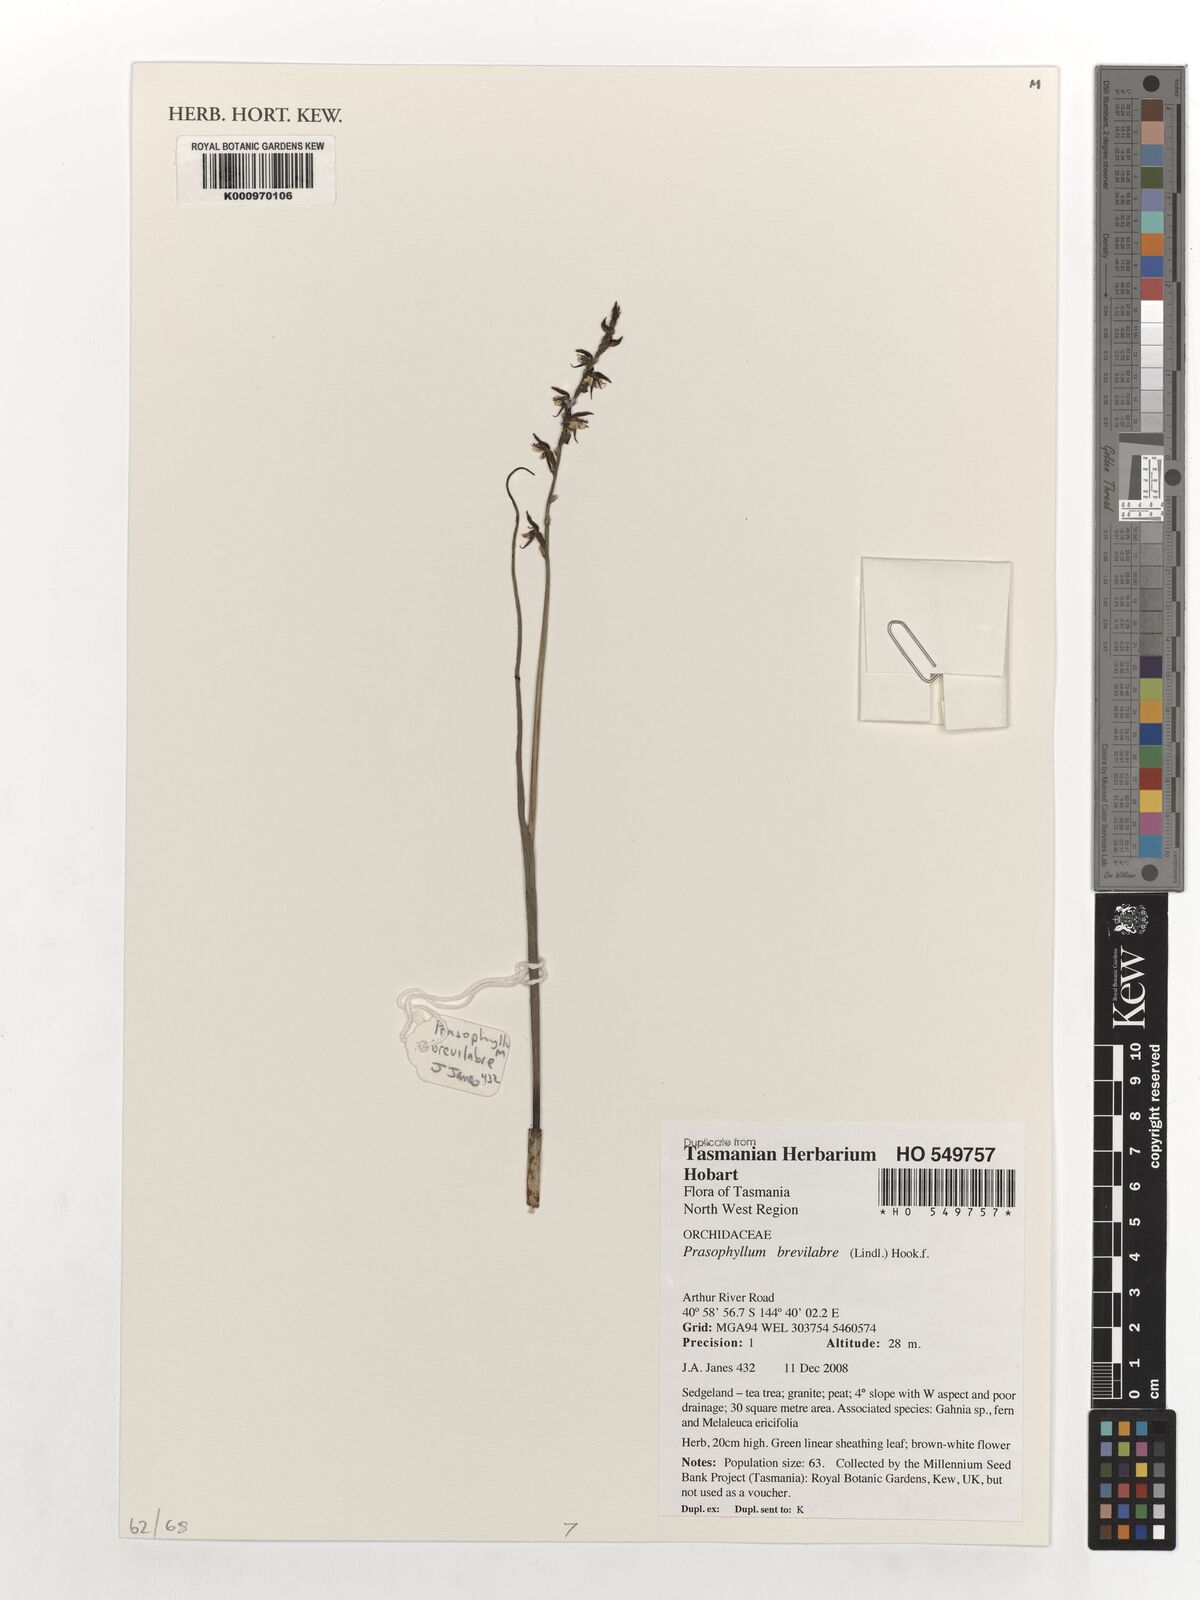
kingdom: Plantae
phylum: Tracheophyta
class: Liliopsida
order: Asparagales
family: Orchidaceae
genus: Prasophyllum
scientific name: Prasophyllum brevilabre
